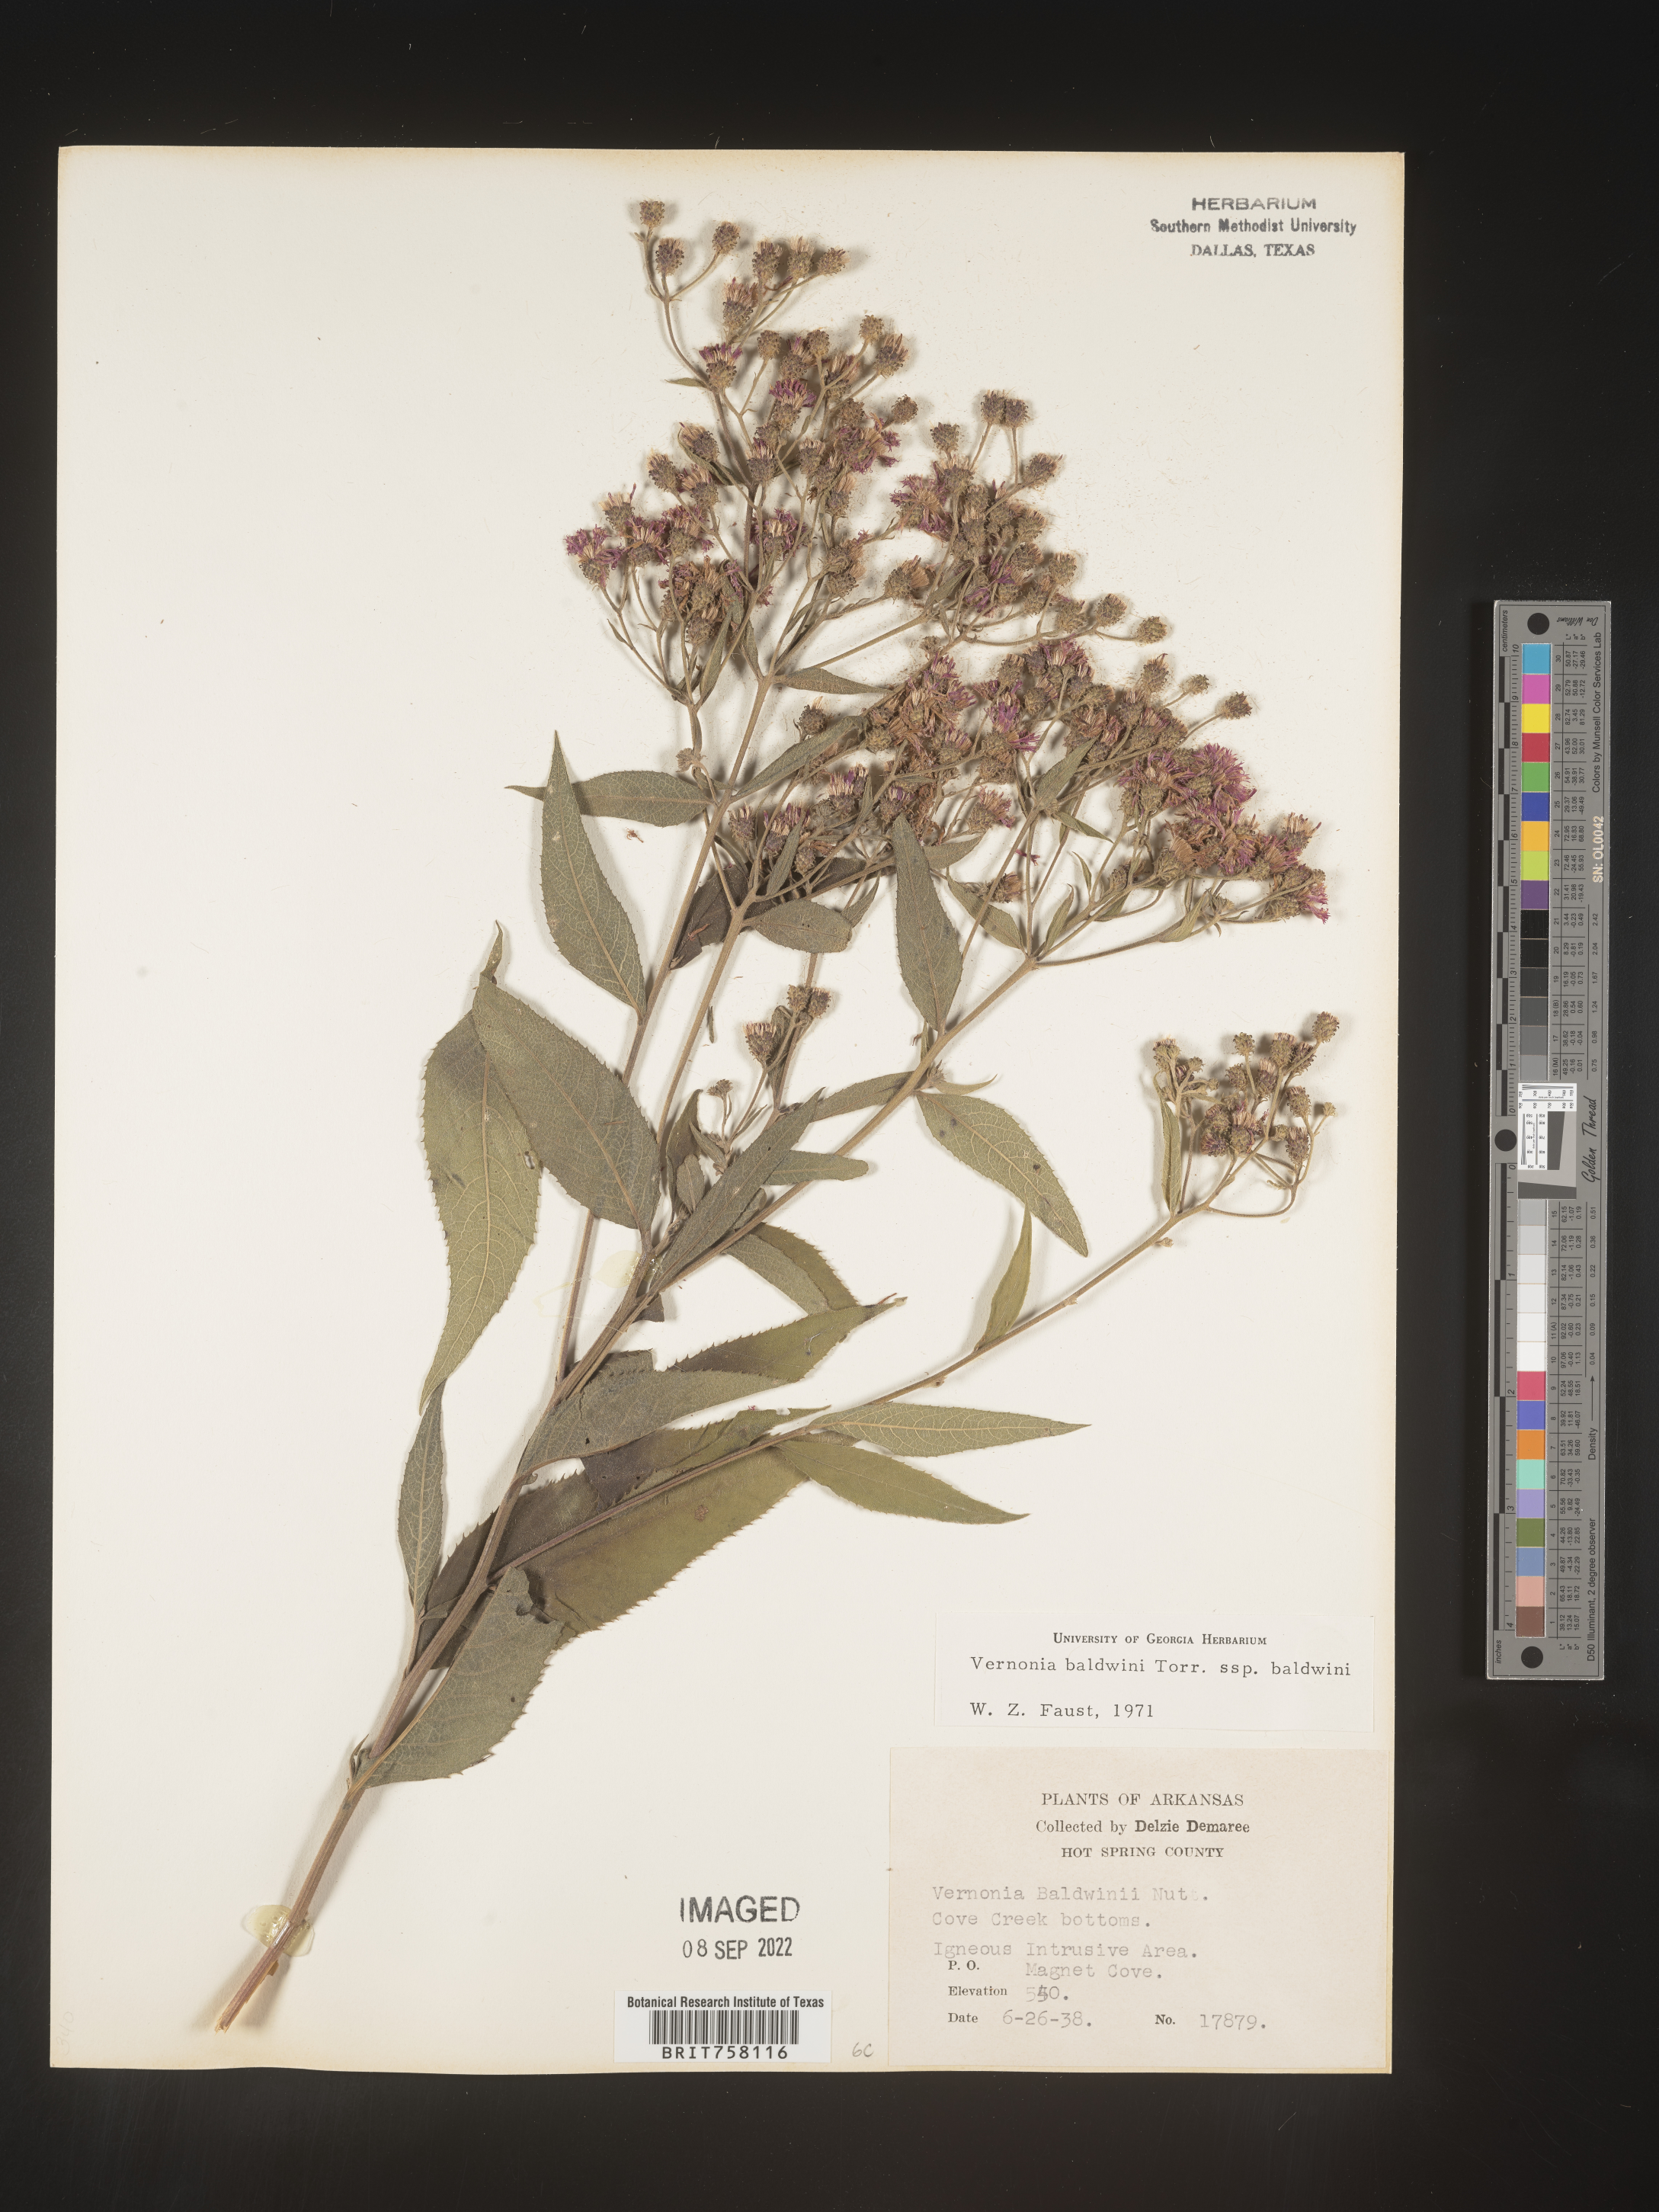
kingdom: Plantae
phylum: Tracheophyta
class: Magnoliopsida
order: Asterales
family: Asteraceae
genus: Vernonia
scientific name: Vernonia baldwinii
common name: Western ironweed
